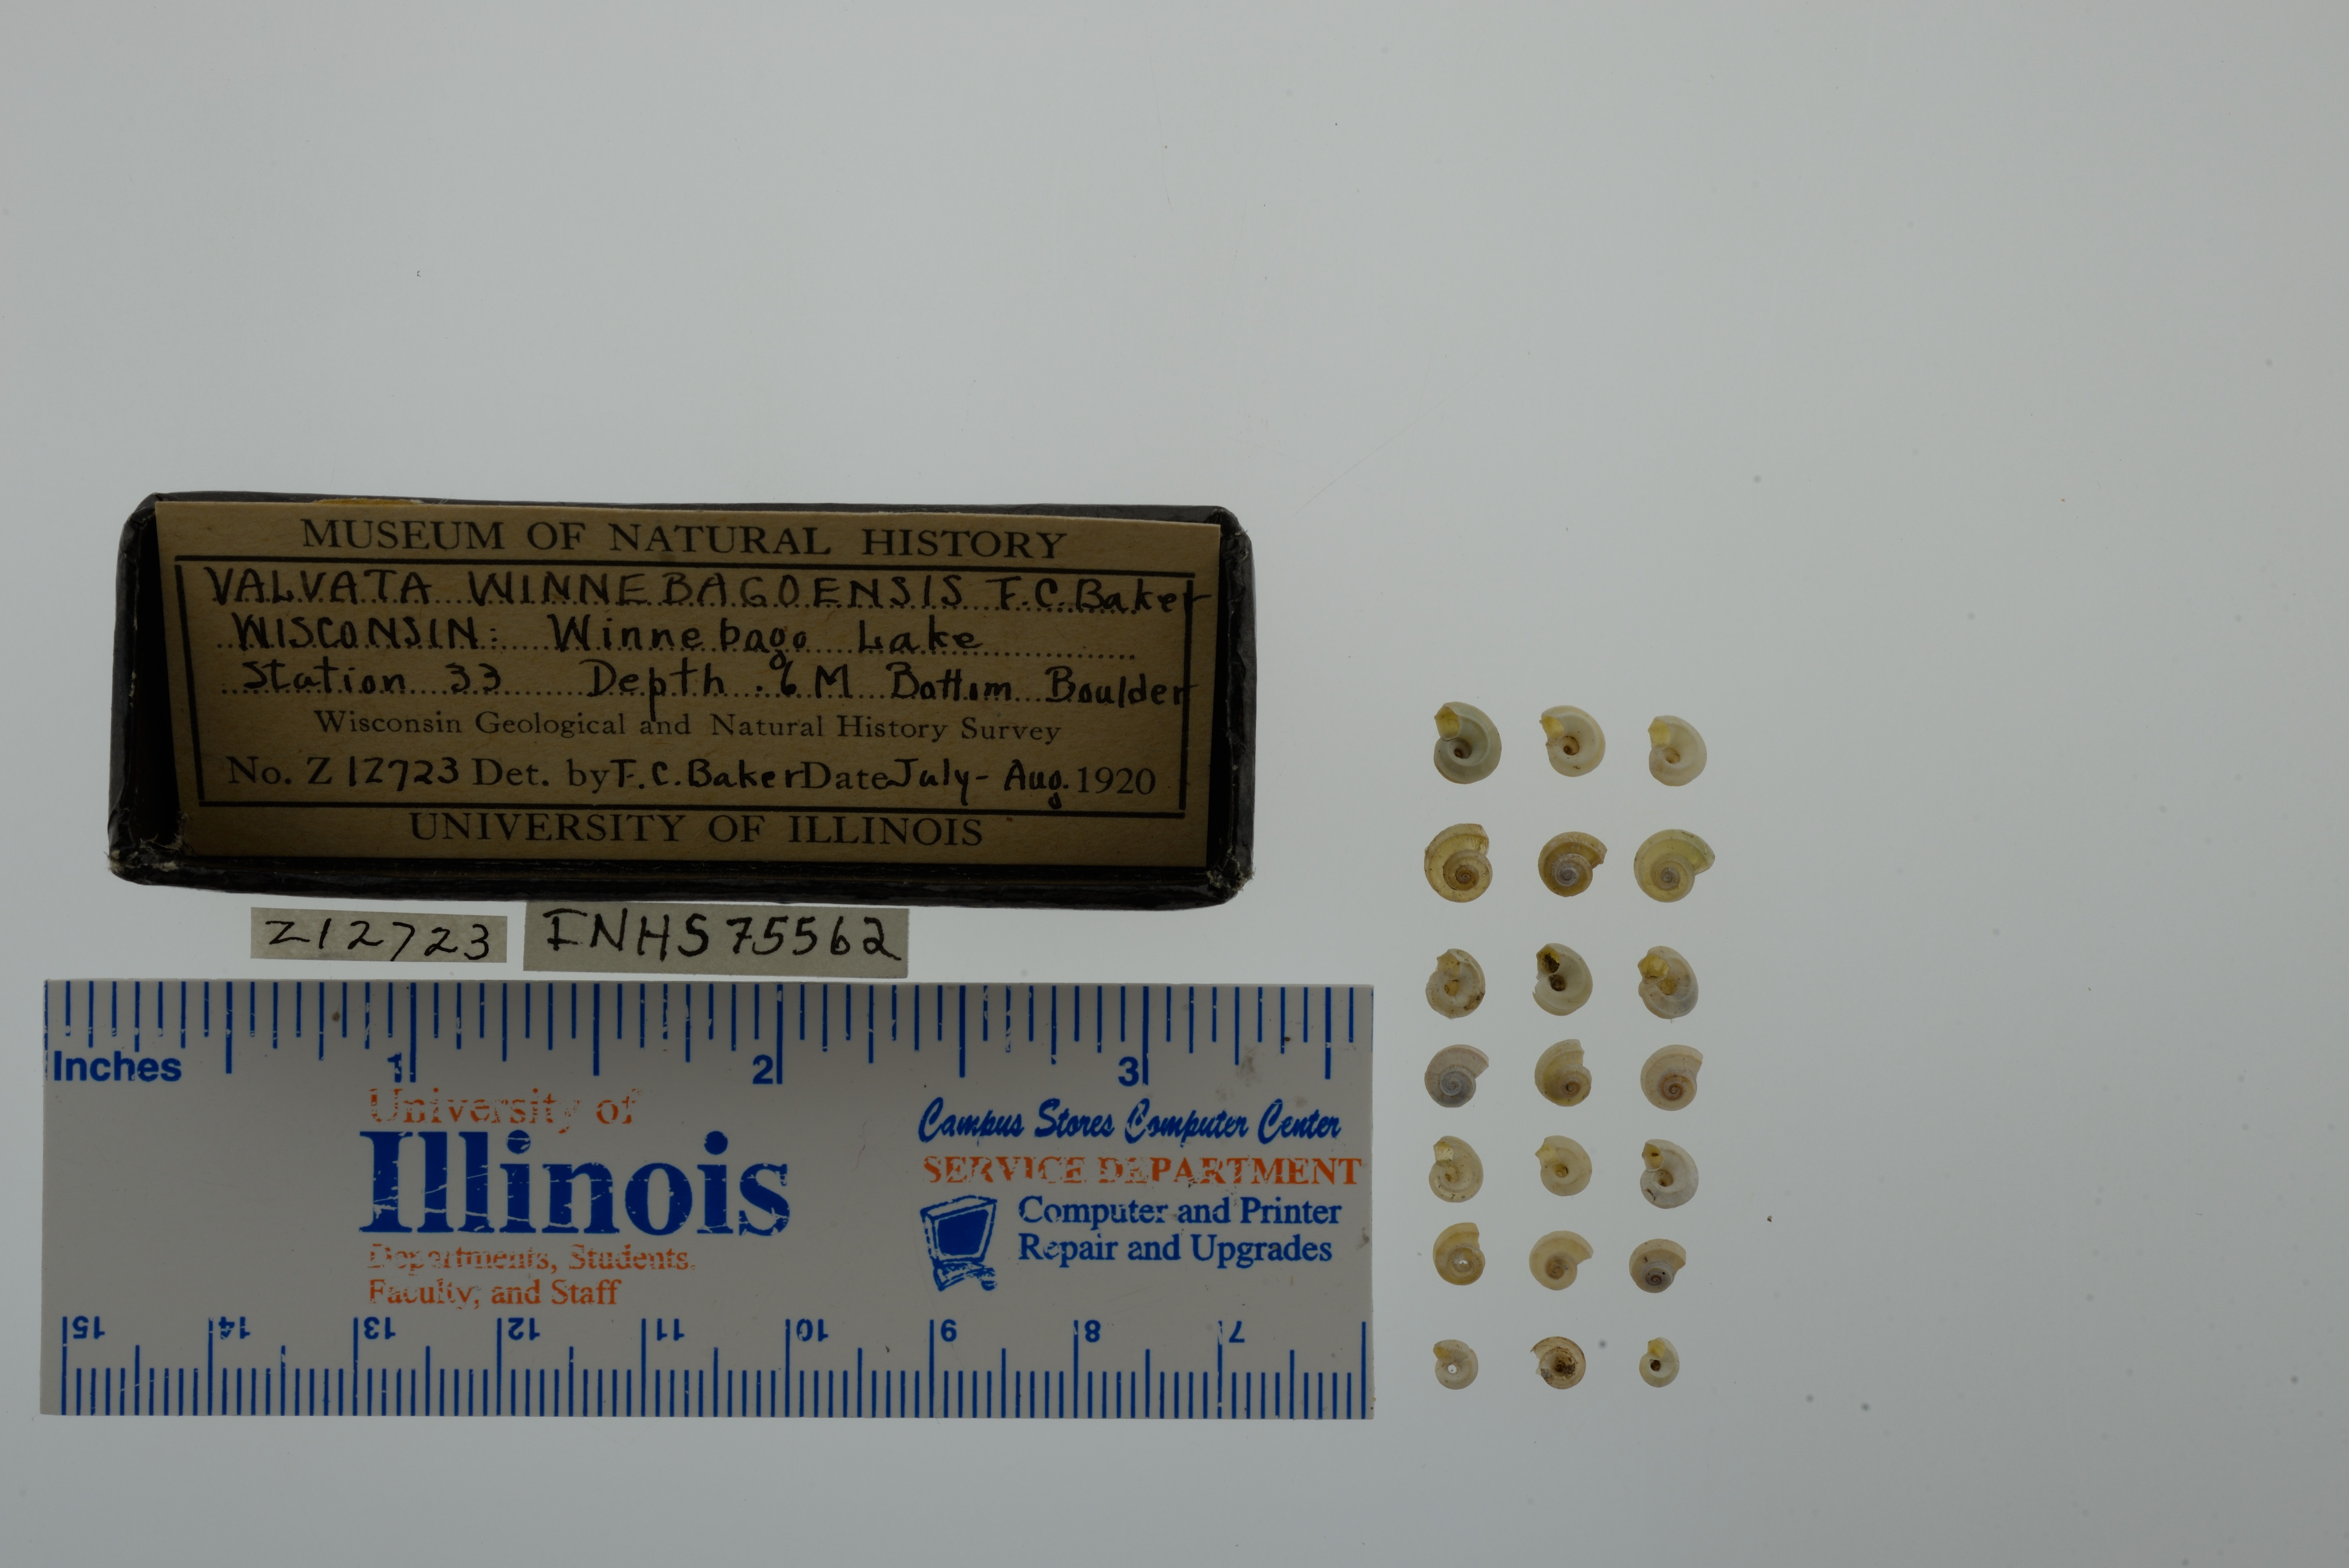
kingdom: Animalia
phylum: Mollusca
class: Gastropoda
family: Valvatidae
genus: Valvata
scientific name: Valvata winnebagoensis
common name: Flanged valvata
